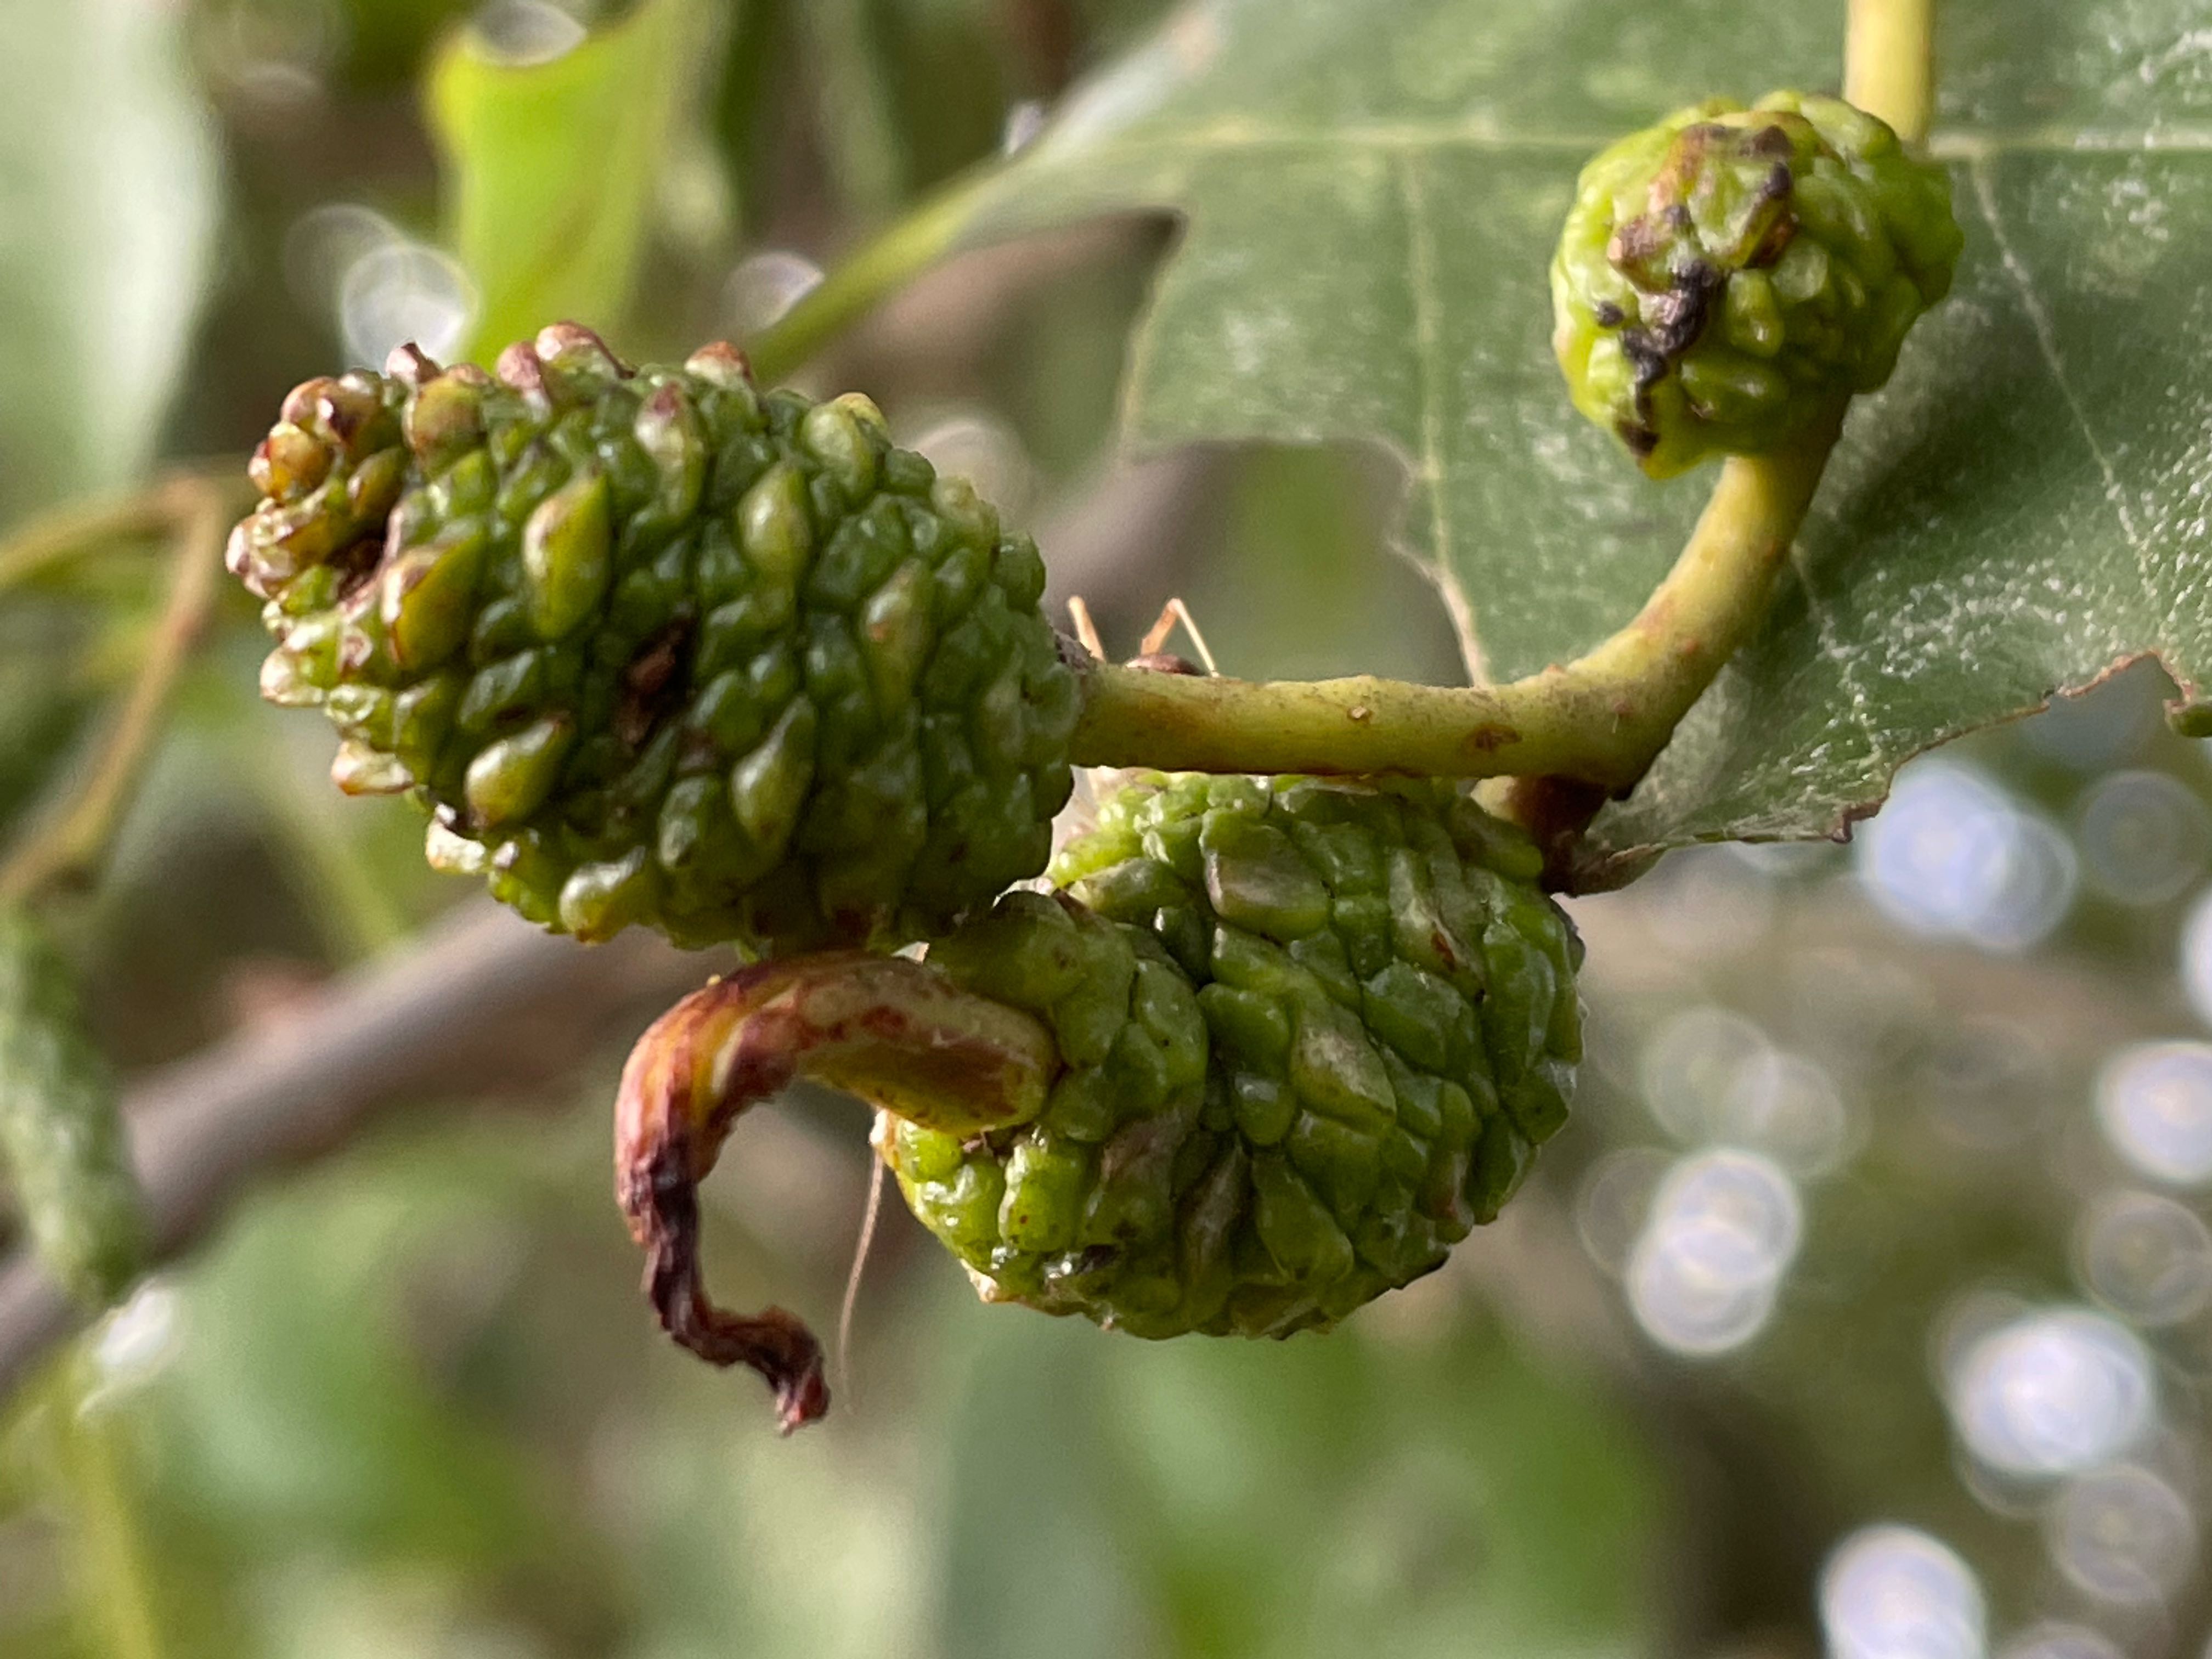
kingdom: Fungi
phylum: Ascomycota
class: Taphrinomycetes
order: Taphrinales
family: Taphrinaceae
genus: Taphrina
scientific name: Taphrina alni
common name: Alder tongue
